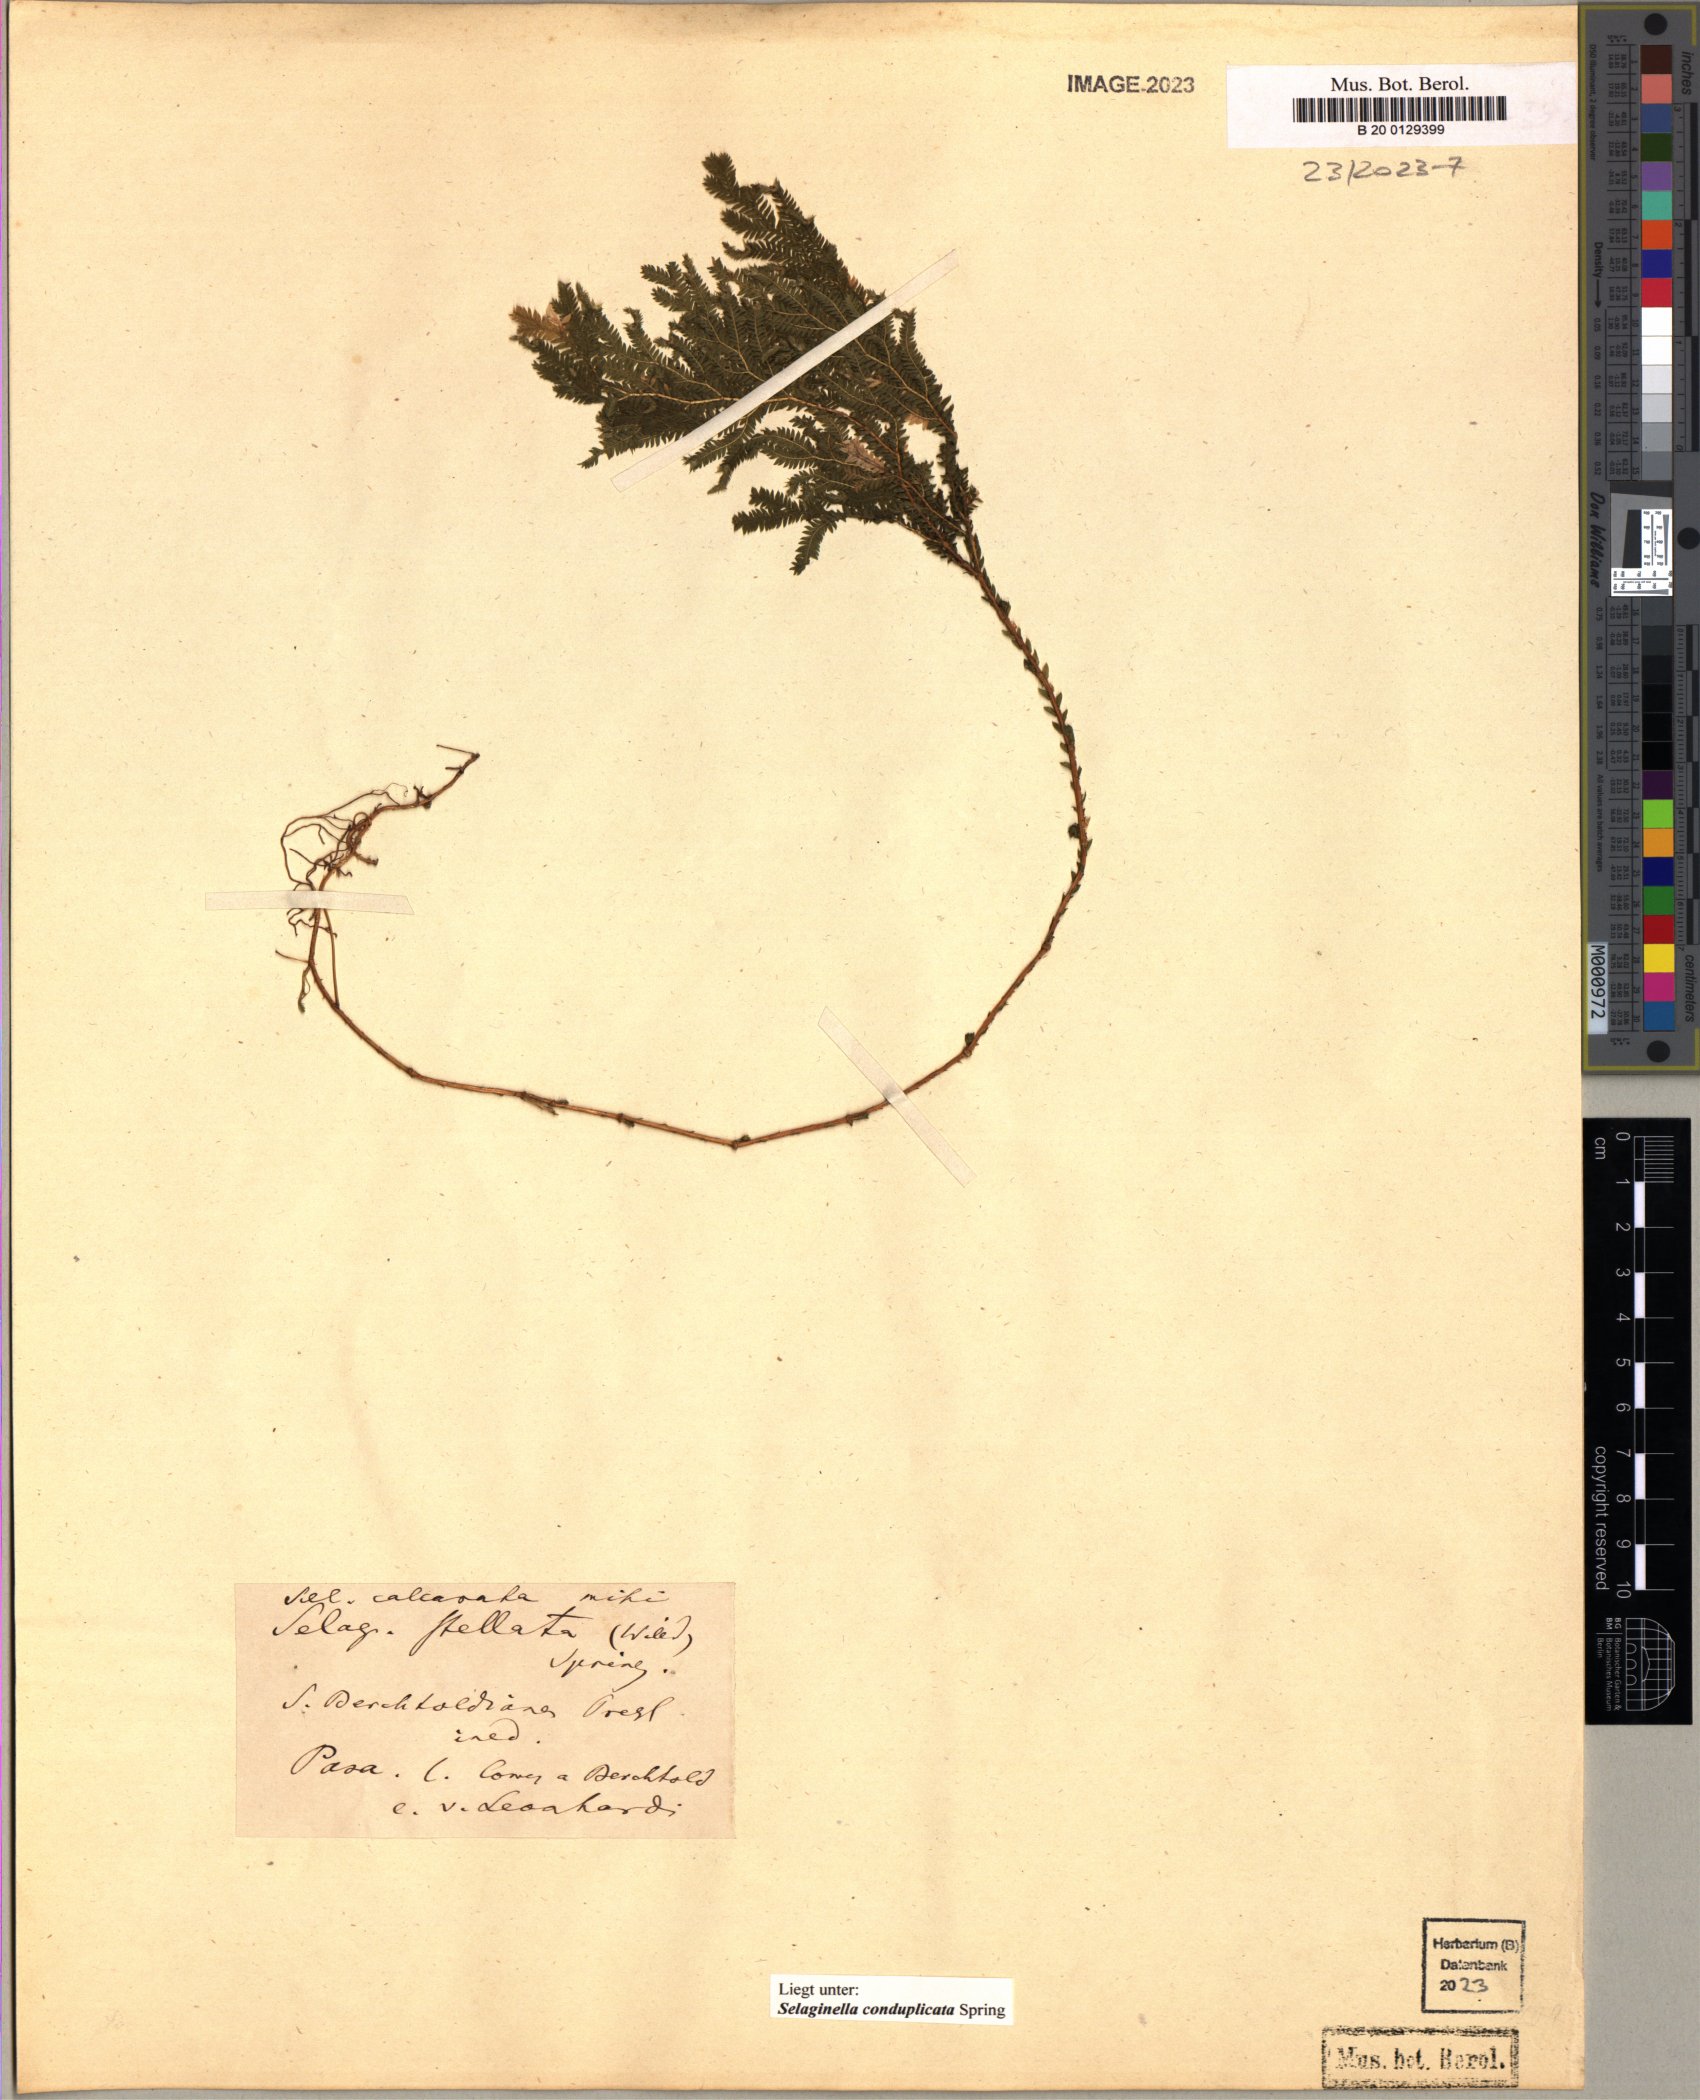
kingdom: Plantae
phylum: Tracheophyta
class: Lycopodiopsida
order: Selaginellales
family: Selaginellaceae
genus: Selaginella
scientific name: Selaginella conduplicata
